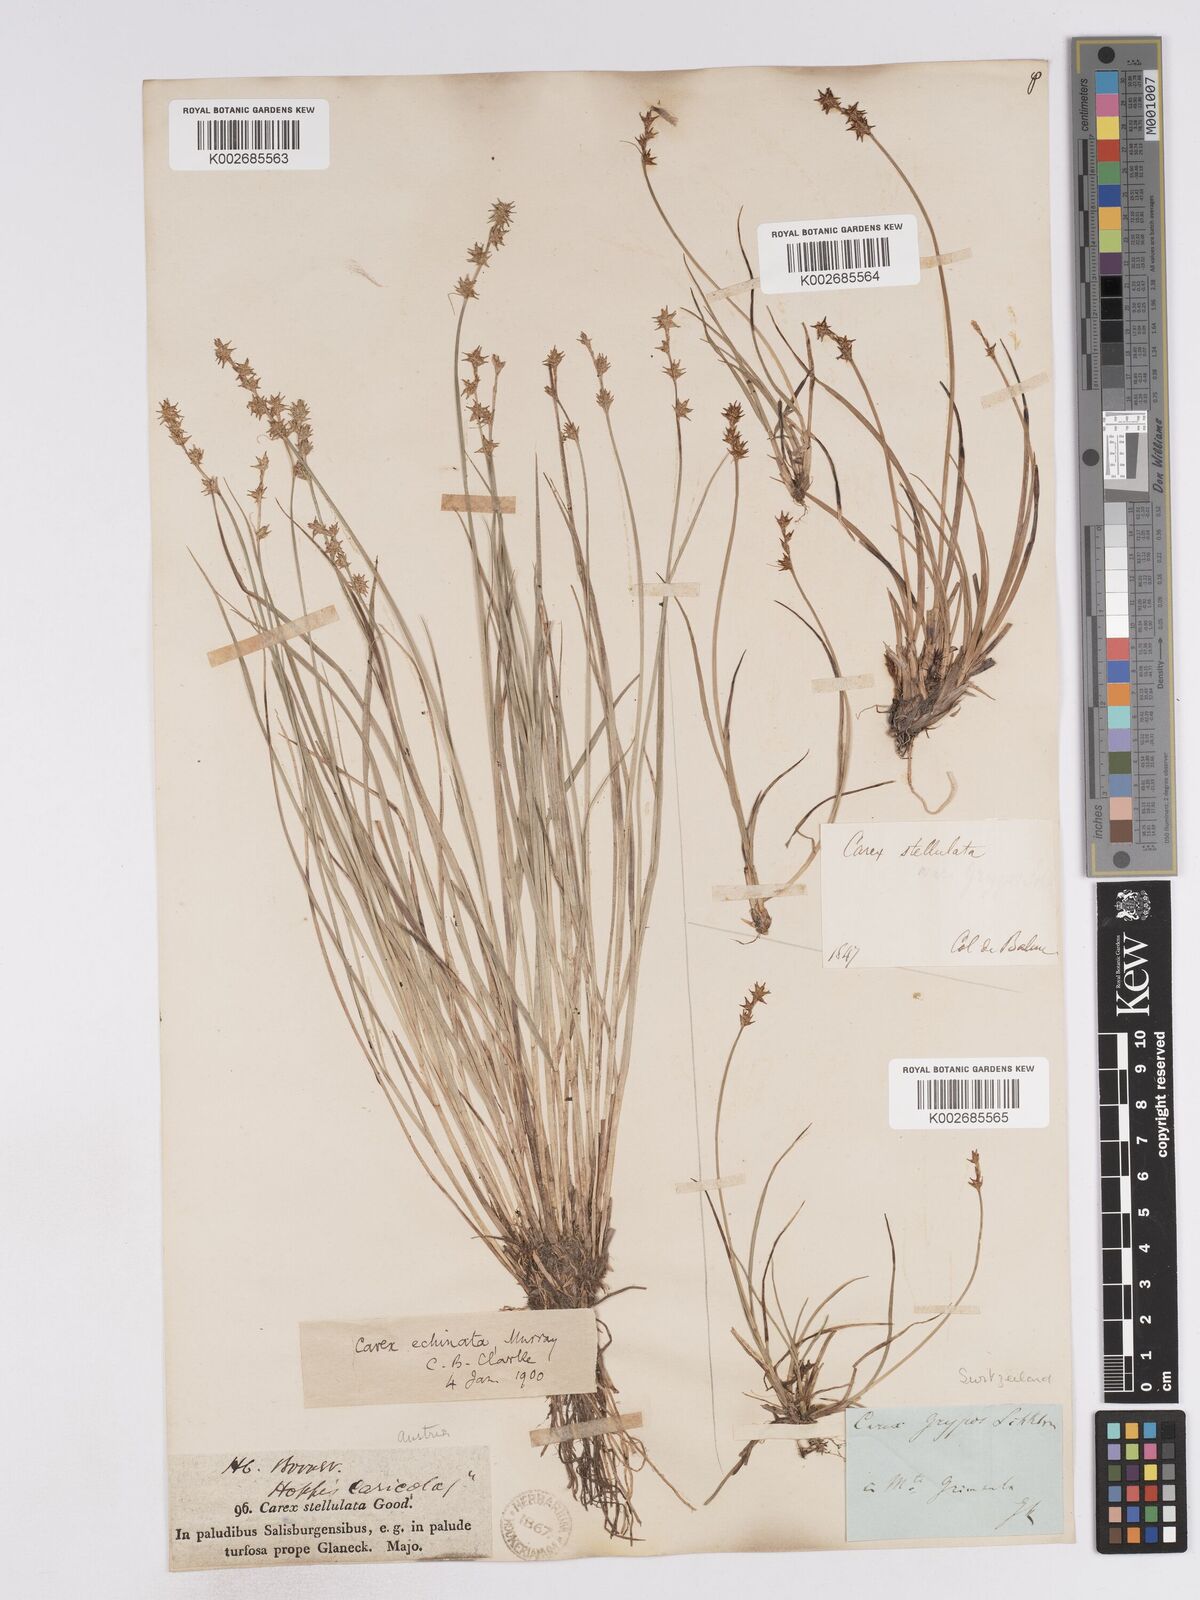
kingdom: Plantae
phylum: Tracheophyta
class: Liliopsida
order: Poales
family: Cyperaceae
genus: Carex
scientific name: Carex echinata
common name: Star sedge
